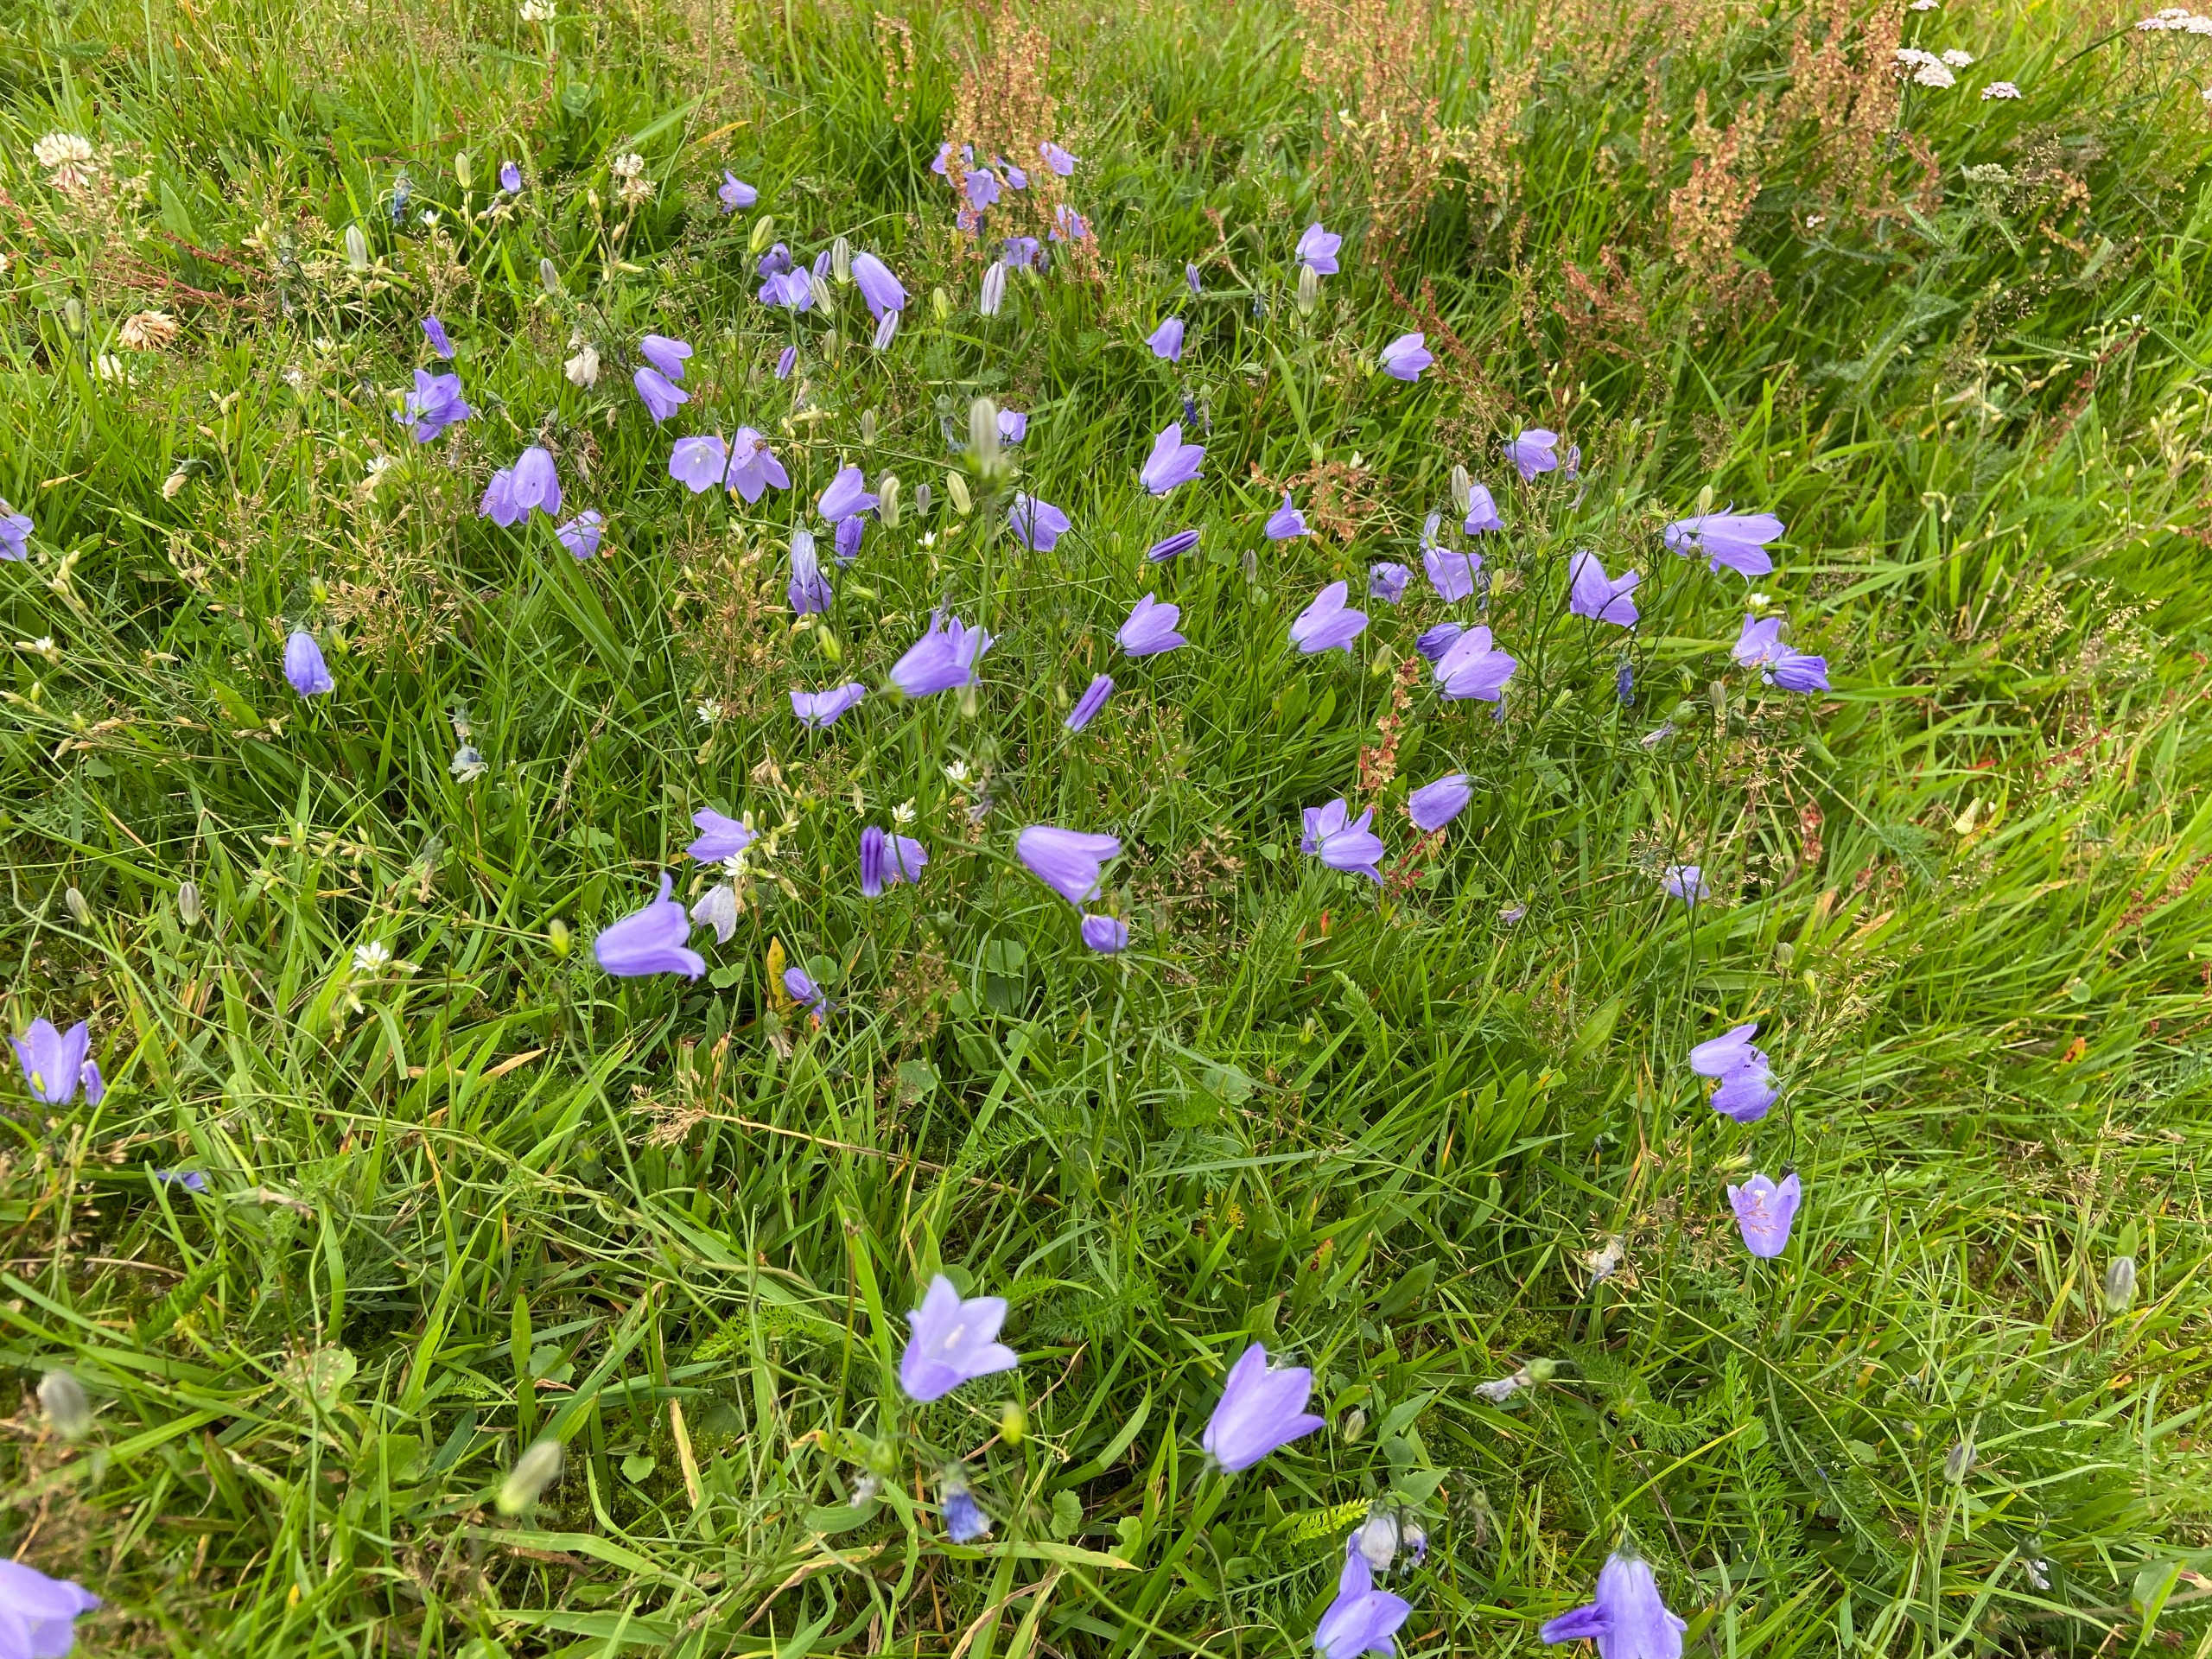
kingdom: Plantae
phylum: Tracheophyta
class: Magnoliopsida
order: Asterales
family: Campanulaceae
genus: Campanula
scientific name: Campanula rotundifolia
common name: Liden klokke
